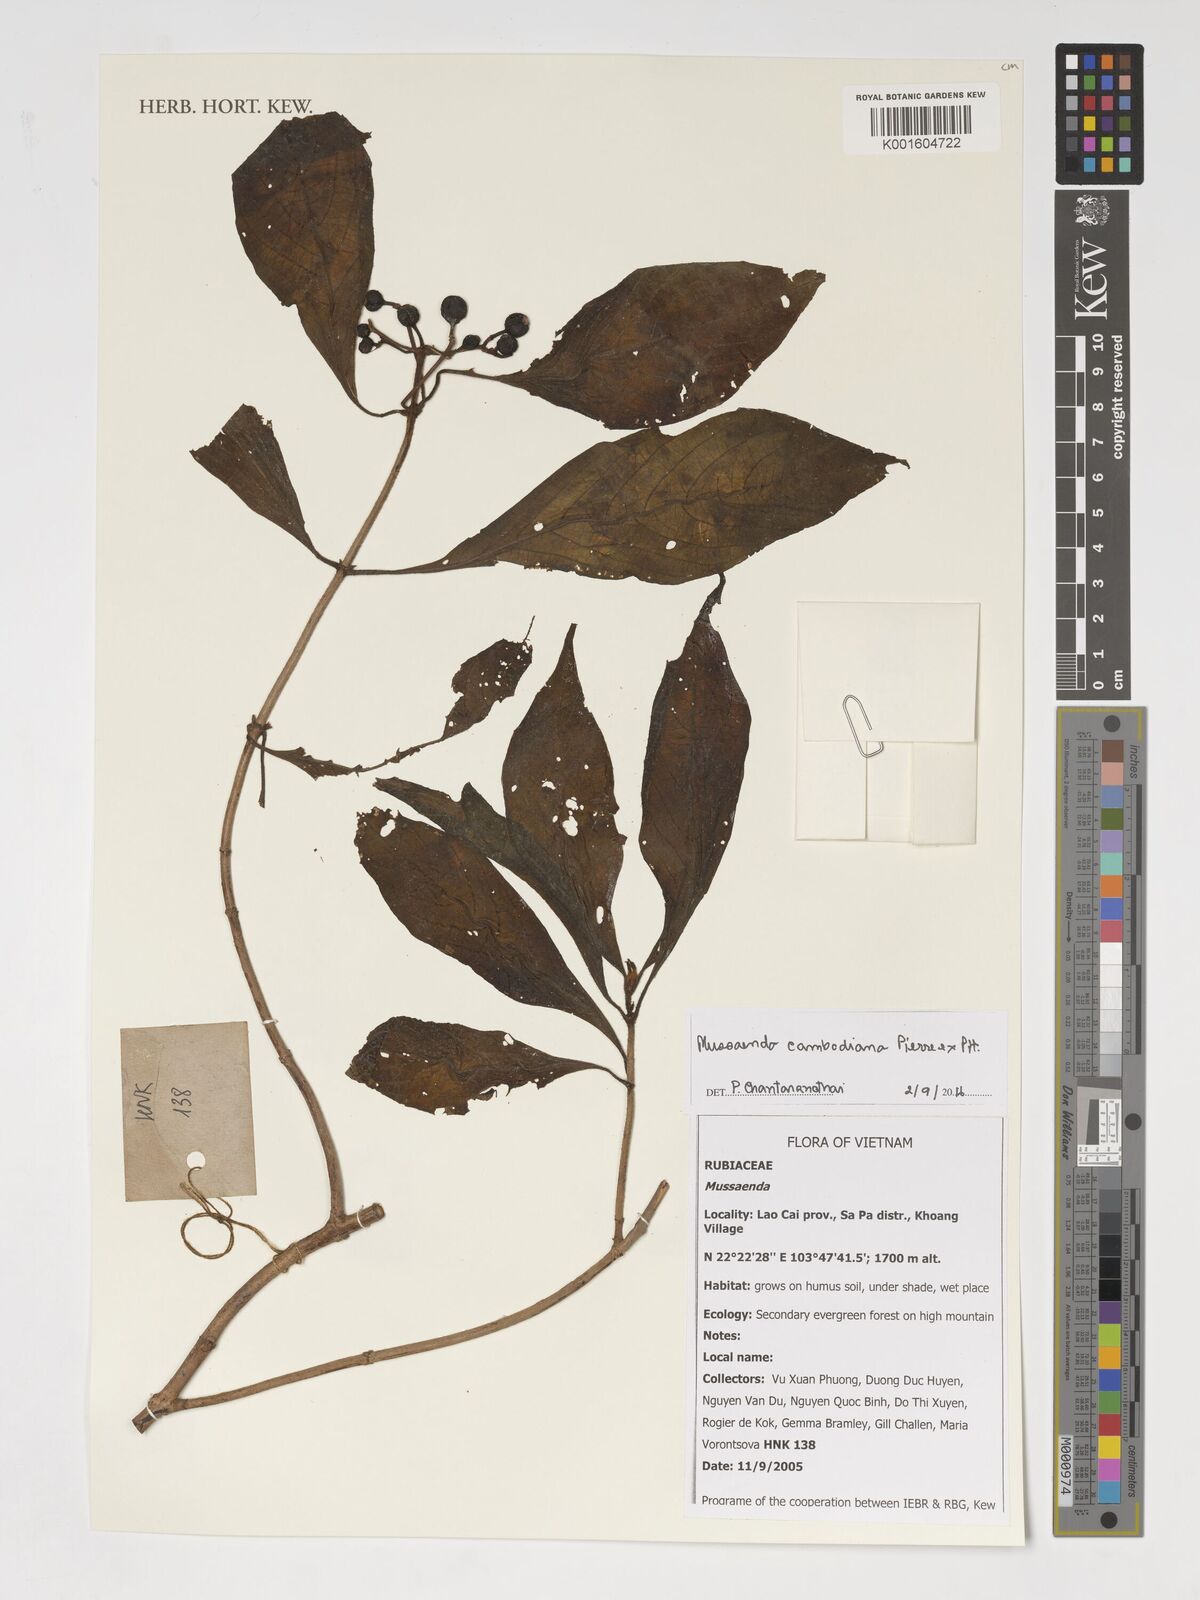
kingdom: Plantae
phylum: Tracheophyta
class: Magnoliopsida
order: Gentianales
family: Rubiaceae
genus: Mussaenda
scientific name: Mussaenda
